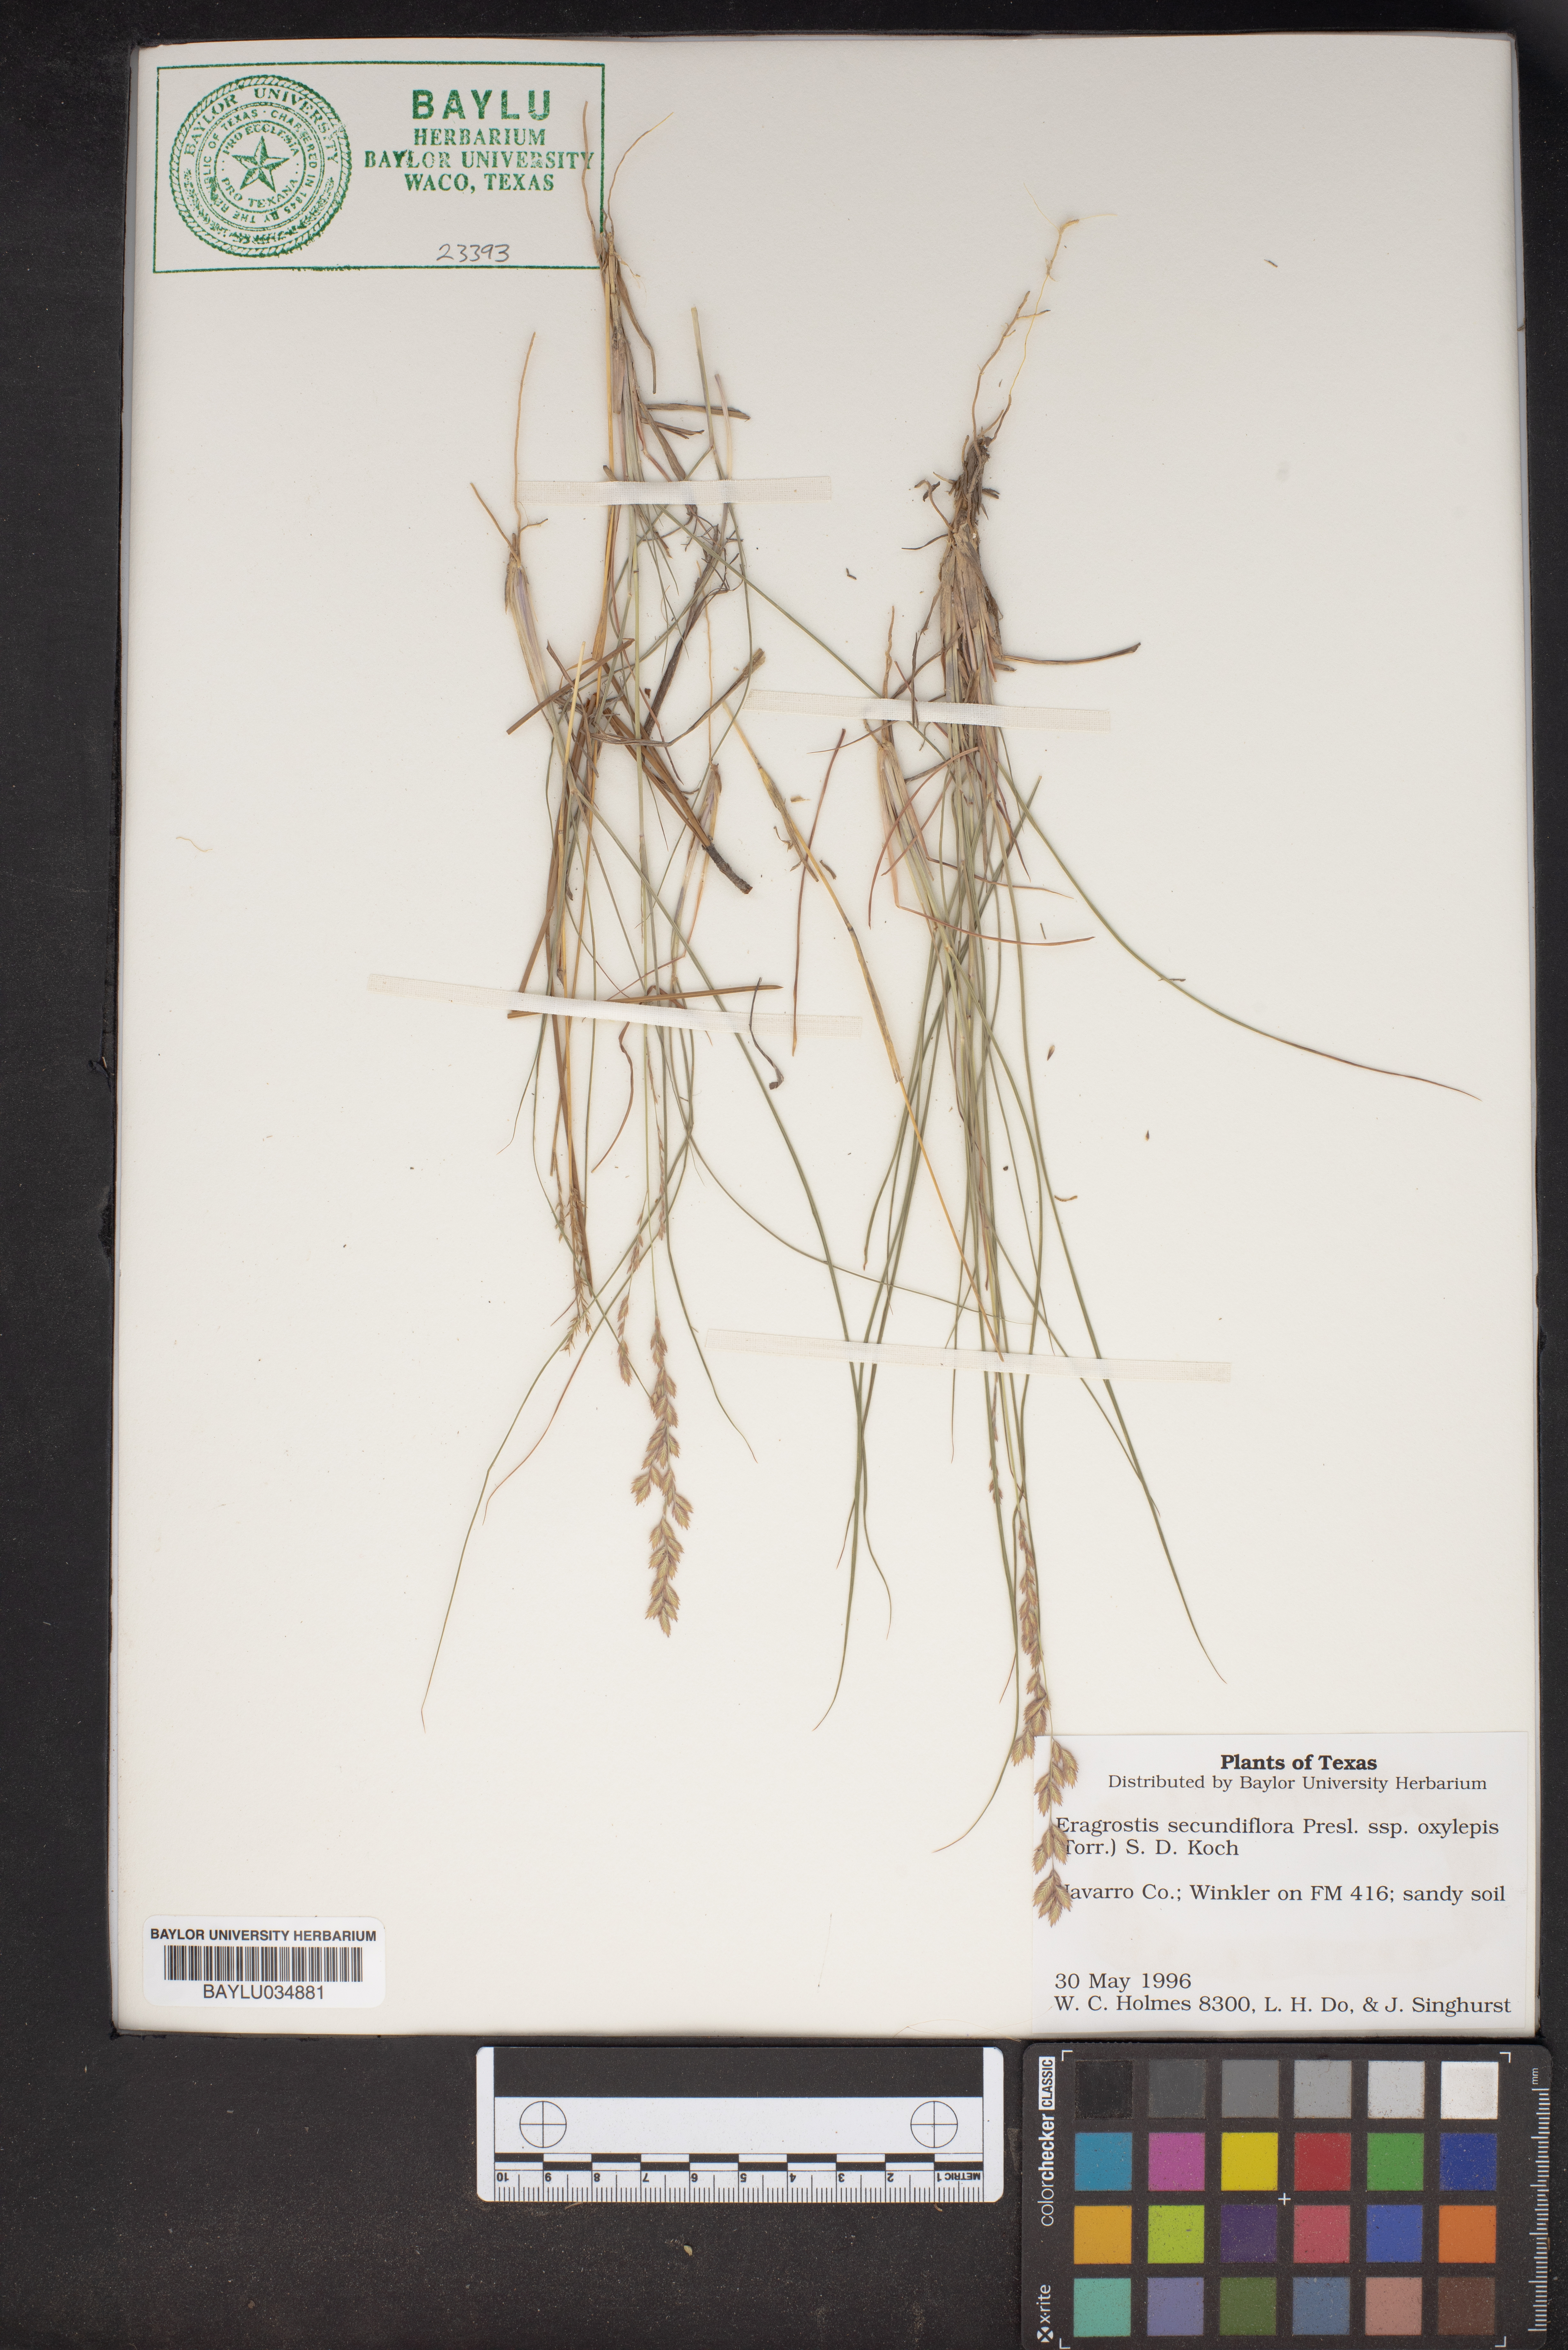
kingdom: Plantae
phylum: Tracheophyta
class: Liliopsida
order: Poales
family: Poaceae
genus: Eragrostis
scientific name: Eragrostis secundiflora
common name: Red love grass
